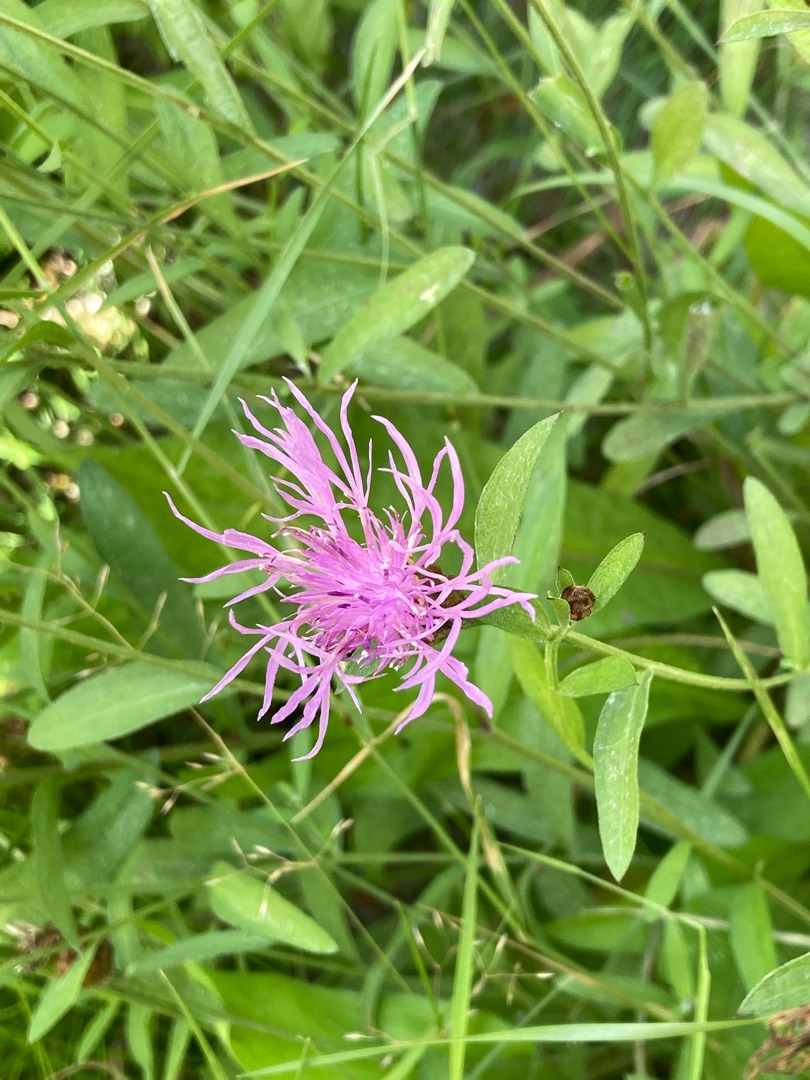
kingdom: Plantae
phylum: Tracheophyta
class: Magnoliopsida
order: Asterales
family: Asteraceae
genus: Centaurea
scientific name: Centaurea jacea
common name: Almindelig knopurt
